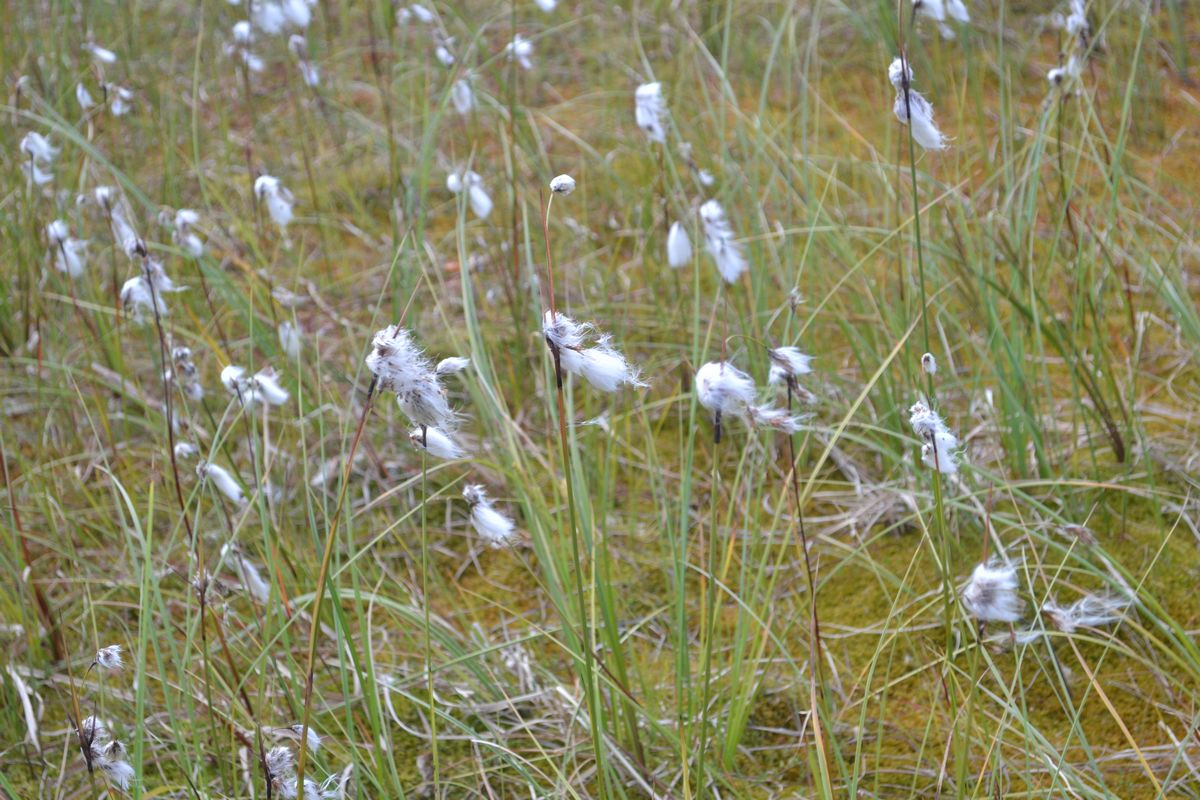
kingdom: Plantae
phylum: Tracheophyta
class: Liliopsida
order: Poales
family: Cyperaceae
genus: Trichophorum
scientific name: Trichophorum alpinum
